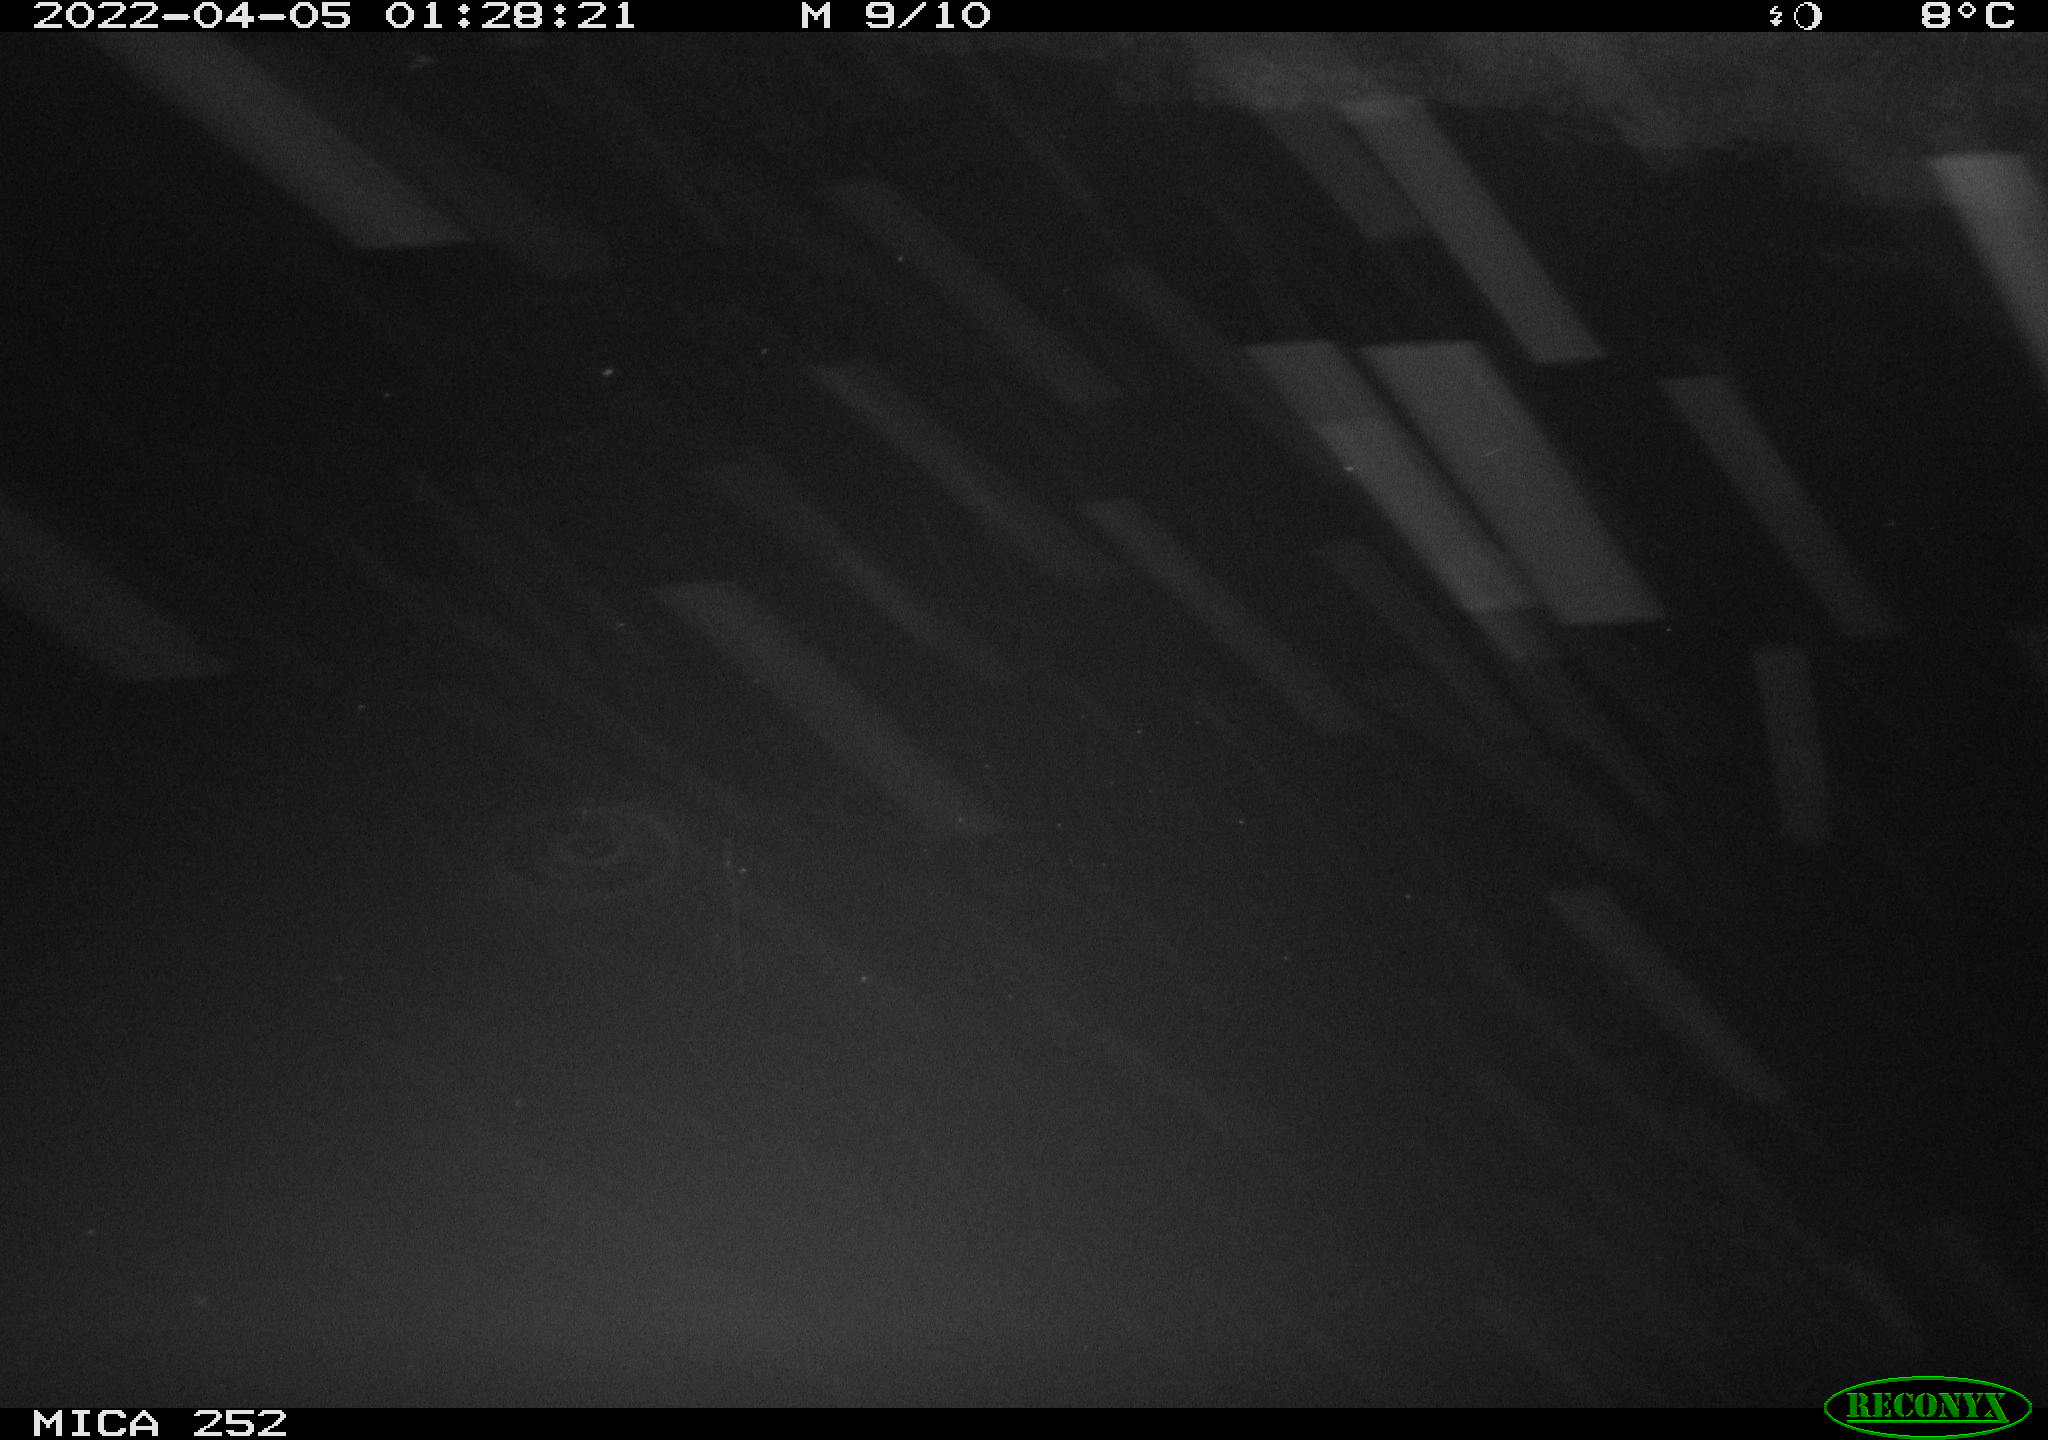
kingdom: Animalia
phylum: Chordata
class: Mammalia
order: Rodentia
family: Castoridae
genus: Castor
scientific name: Castor fiber
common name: Eurasian beaver
